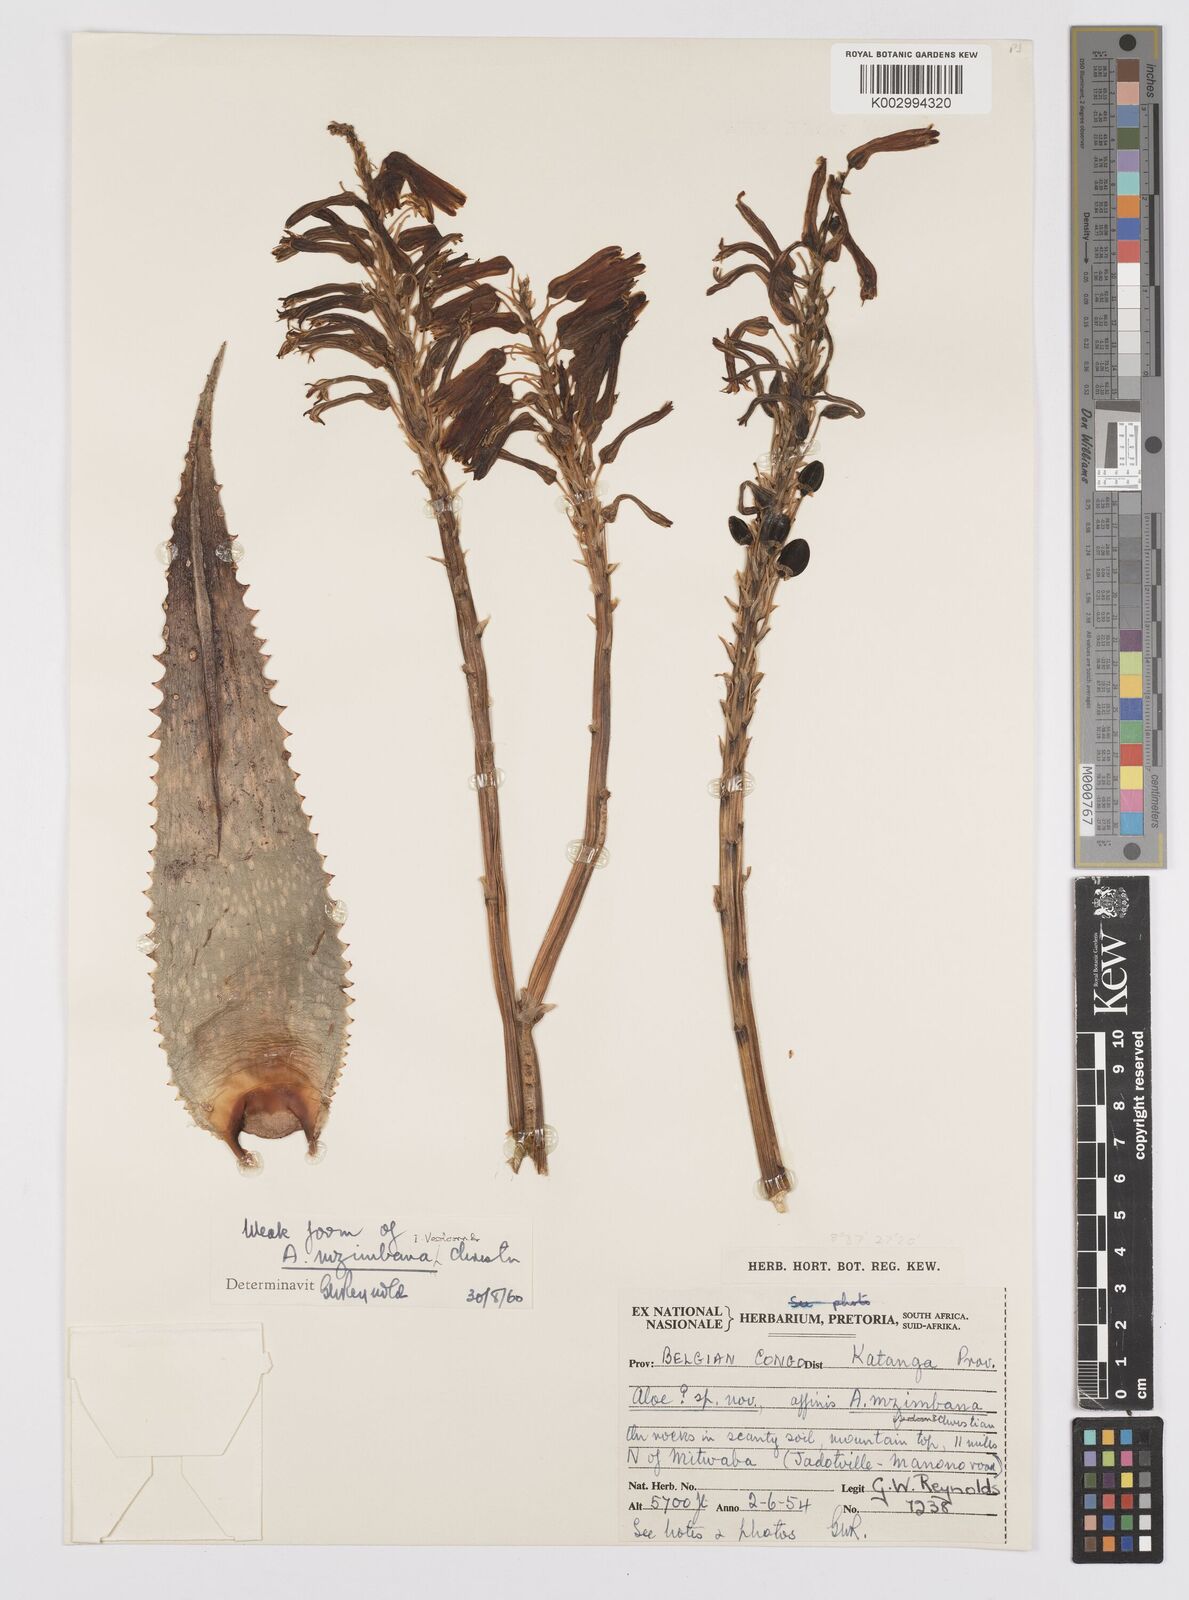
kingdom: Plantae
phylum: Tracheophyta
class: Liliopsida
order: Asparagales
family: Asphodelaceae
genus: Aloe
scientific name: Aloe mzimbana
